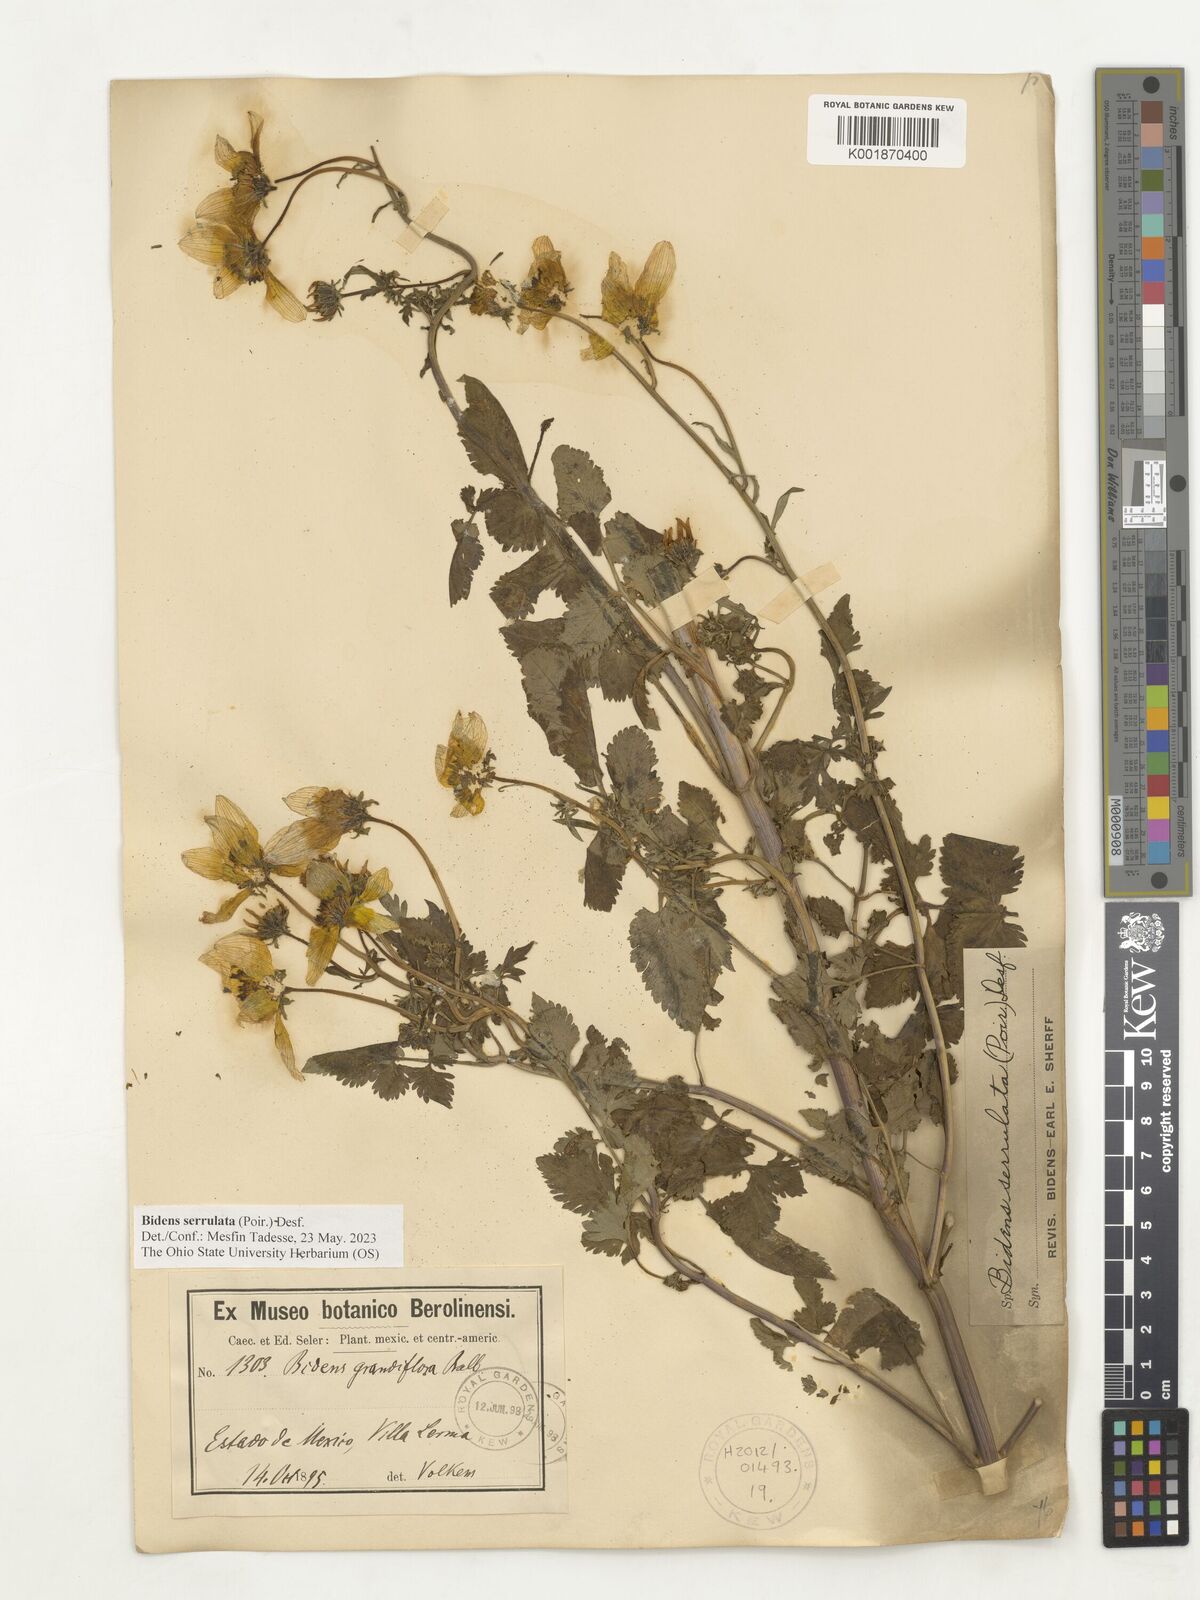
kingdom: Plantae
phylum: Tracheophyta
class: Magnoliopsida
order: Asterales
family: Asteraceae
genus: Bidens
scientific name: Bidens serrulata
